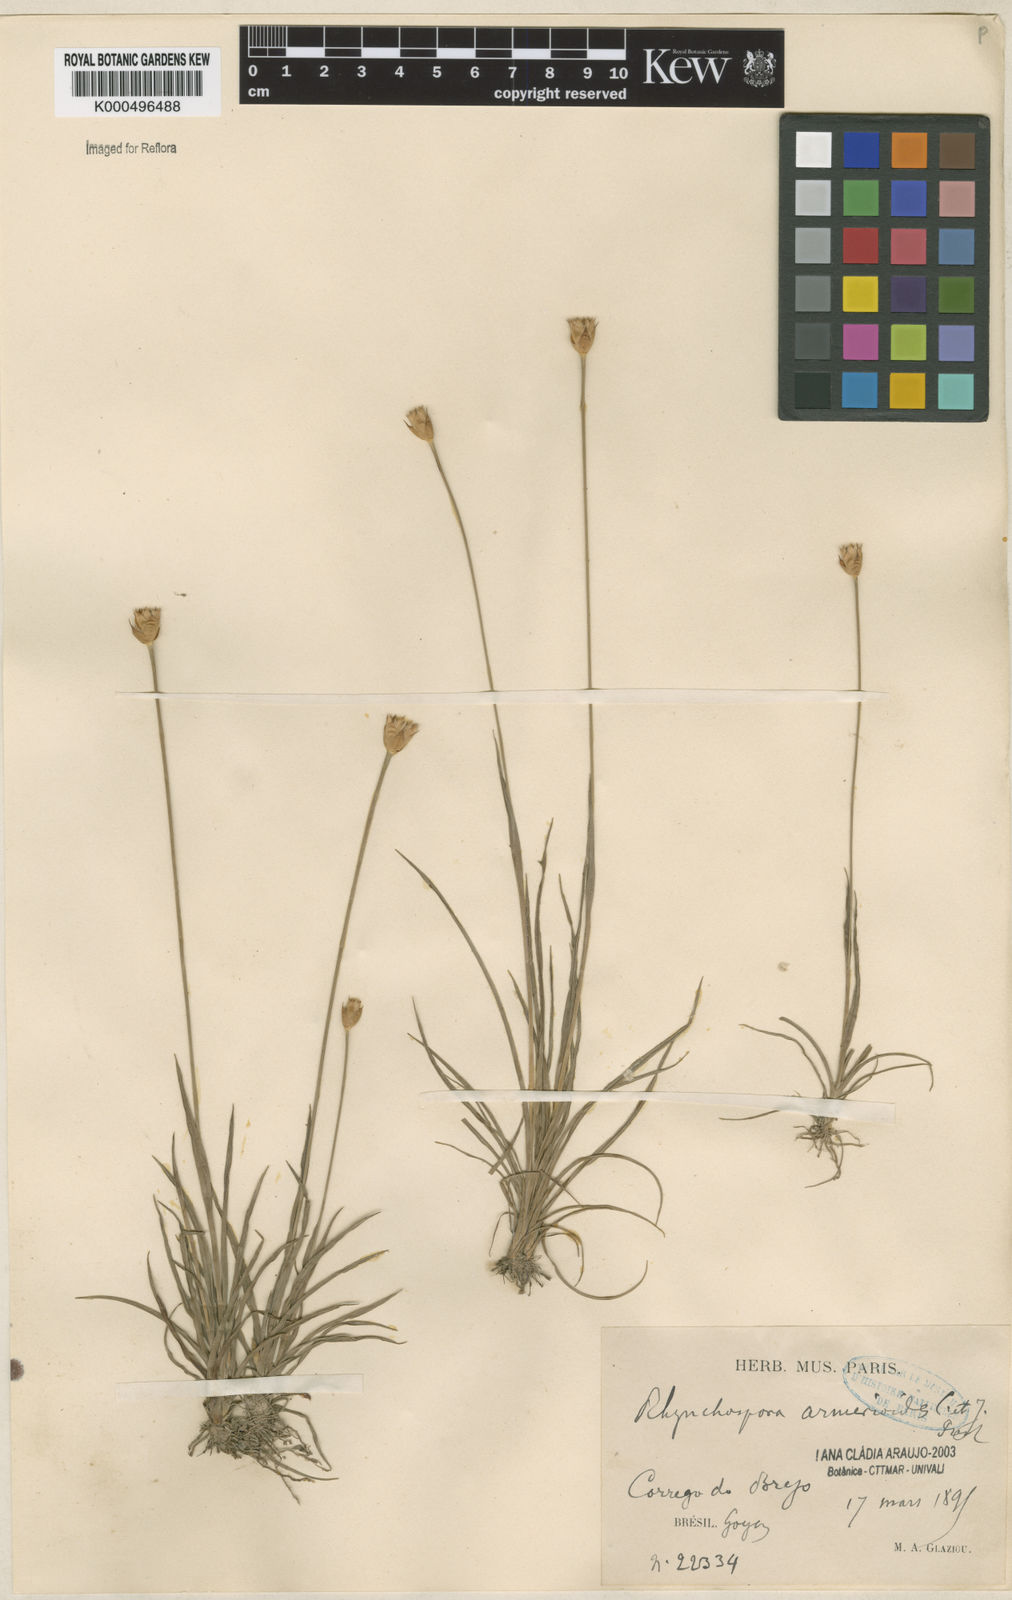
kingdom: Plantae
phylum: Tracheophyta
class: Liliopsida
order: Poales
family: Cyperaceae
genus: Rhynchospora
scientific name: Rhynchospora armerioides
